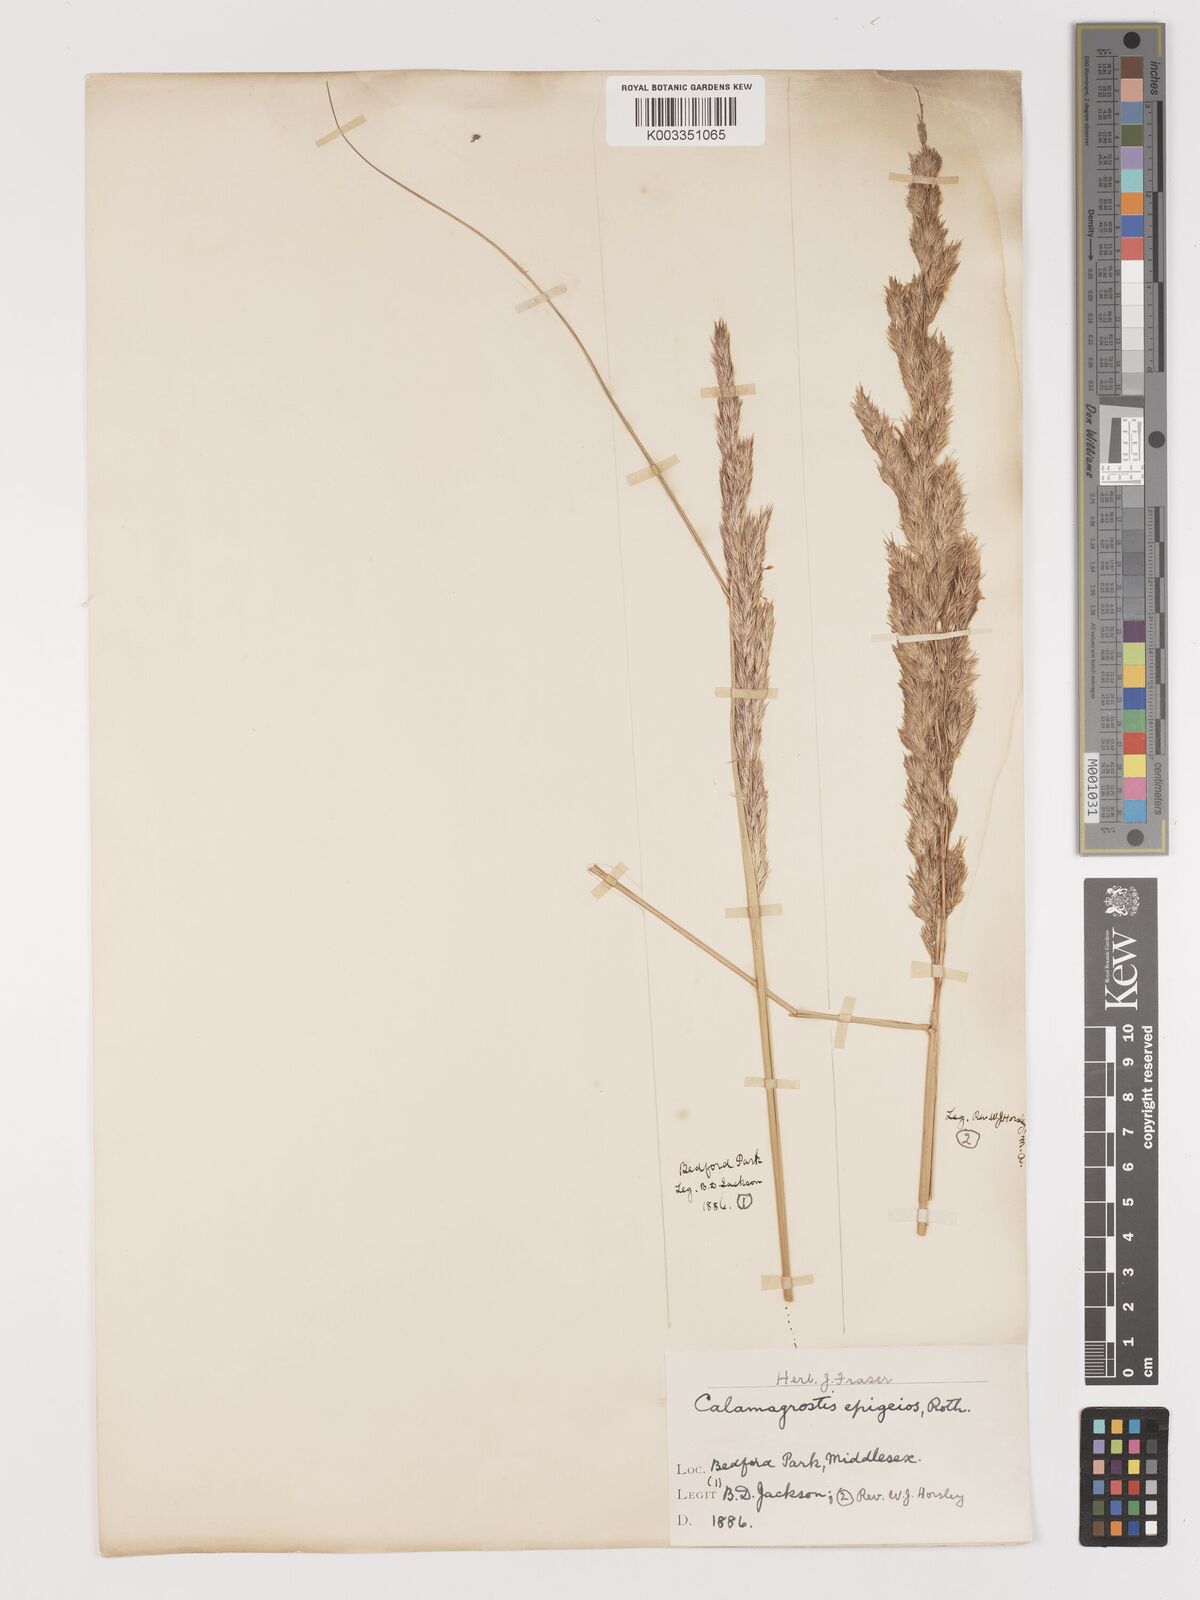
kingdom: Plantae
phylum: Tracheophyta
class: Liliopsida
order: Poales
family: Poaceae
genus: Calamagrostis
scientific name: Calamagrostis epigejos
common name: Wood small-reed
